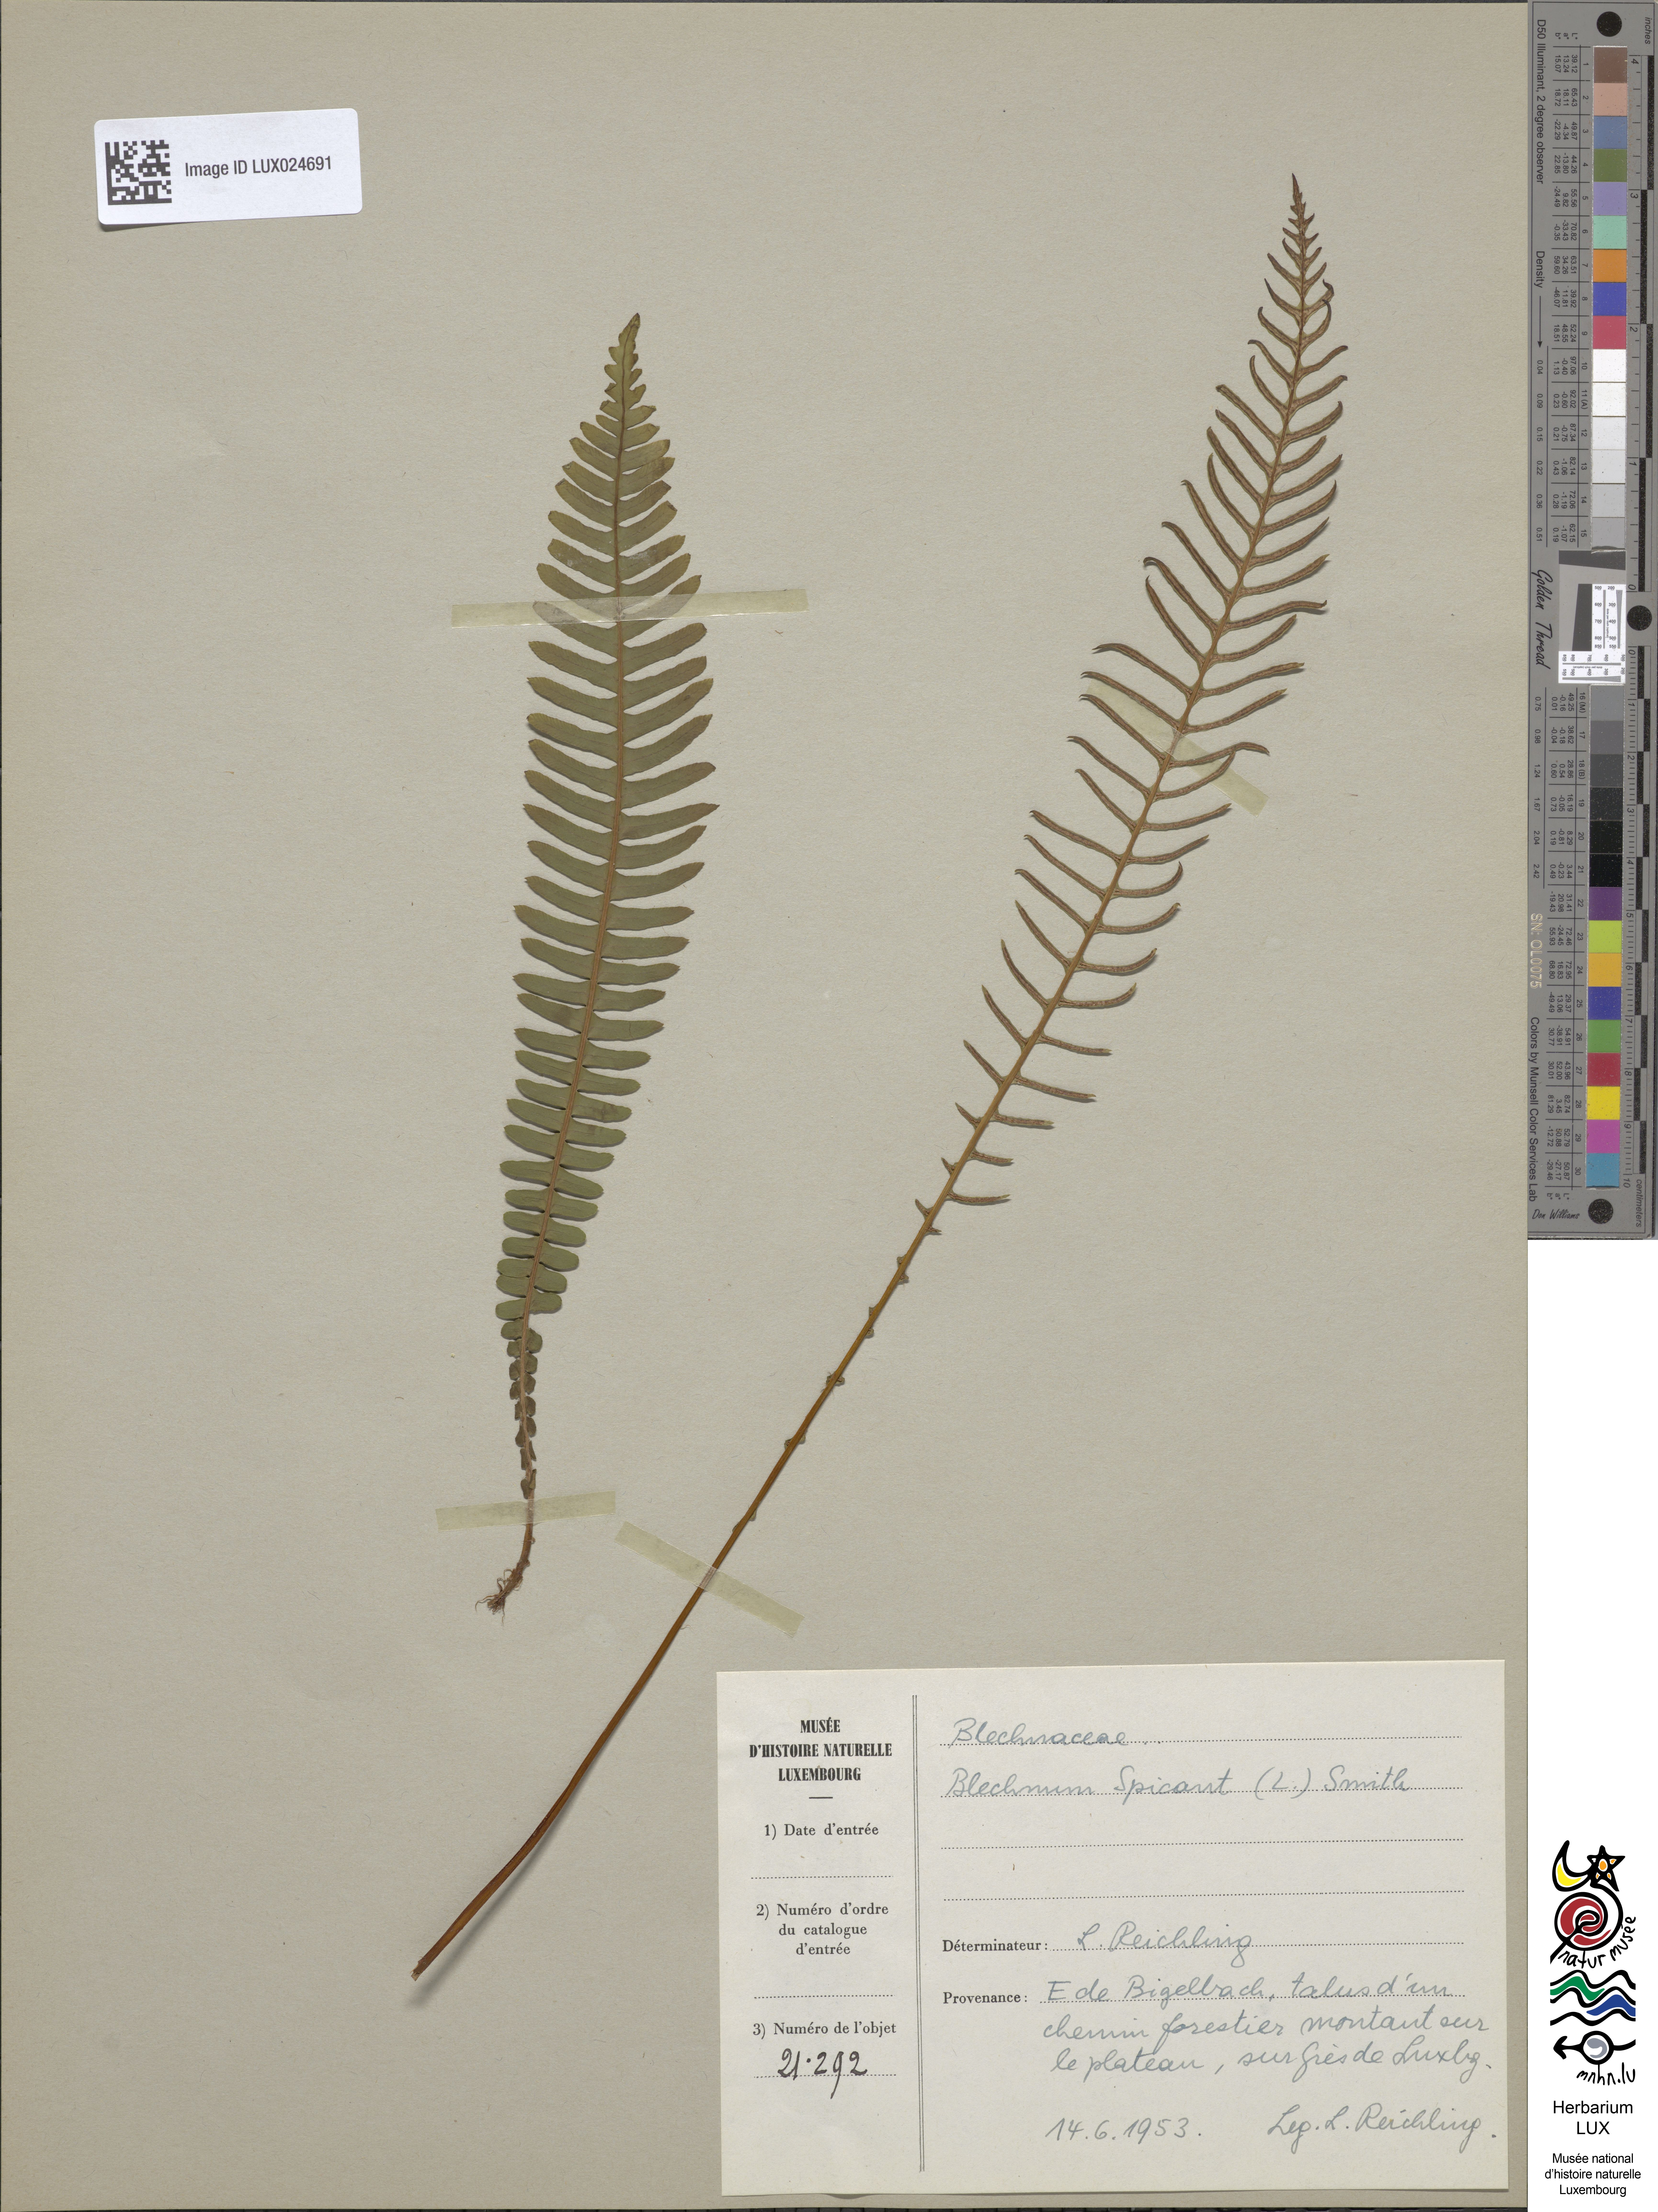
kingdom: Plantae
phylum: Tracheophyta
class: Polypodiopsida
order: Polypodiales
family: Blechnaceae
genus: Struthiopteris
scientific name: Struthiopteris spicant
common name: Deer fern
